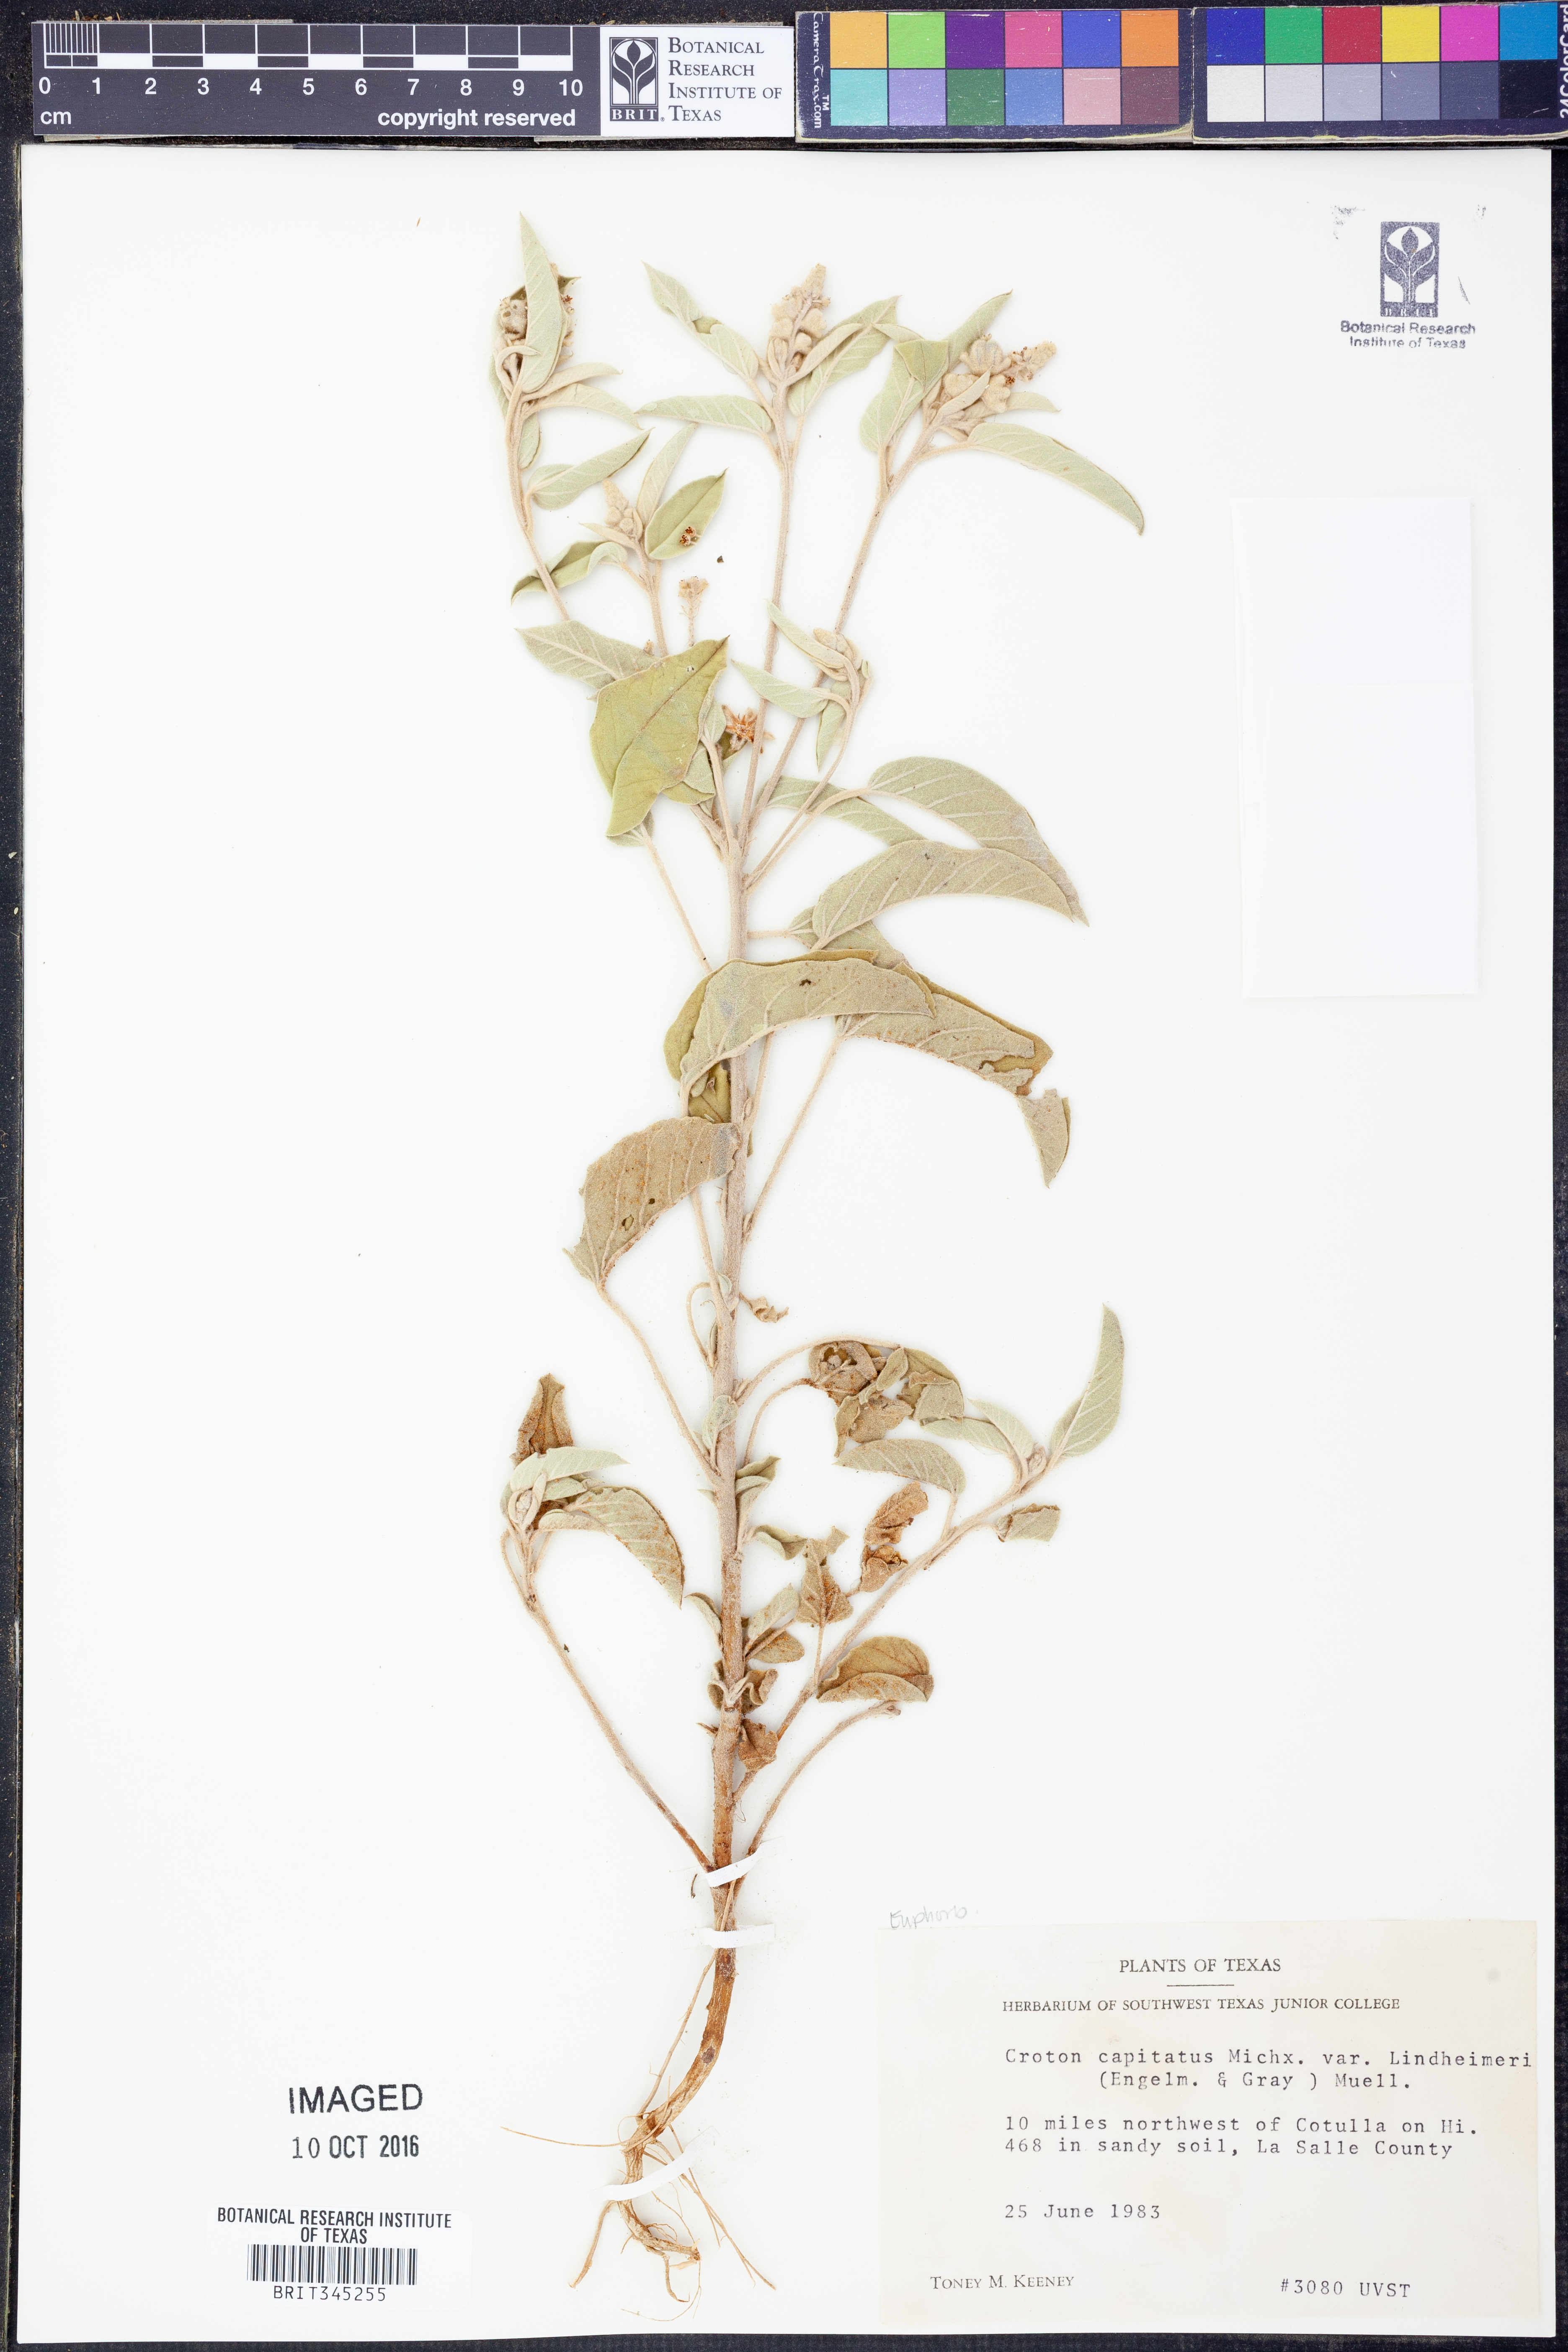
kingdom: Plantae
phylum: Tracheophyta
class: Magnoliopsida
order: Malpighiales
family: Euphorbiaceae
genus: Croton
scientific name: Croton lindheimeri
